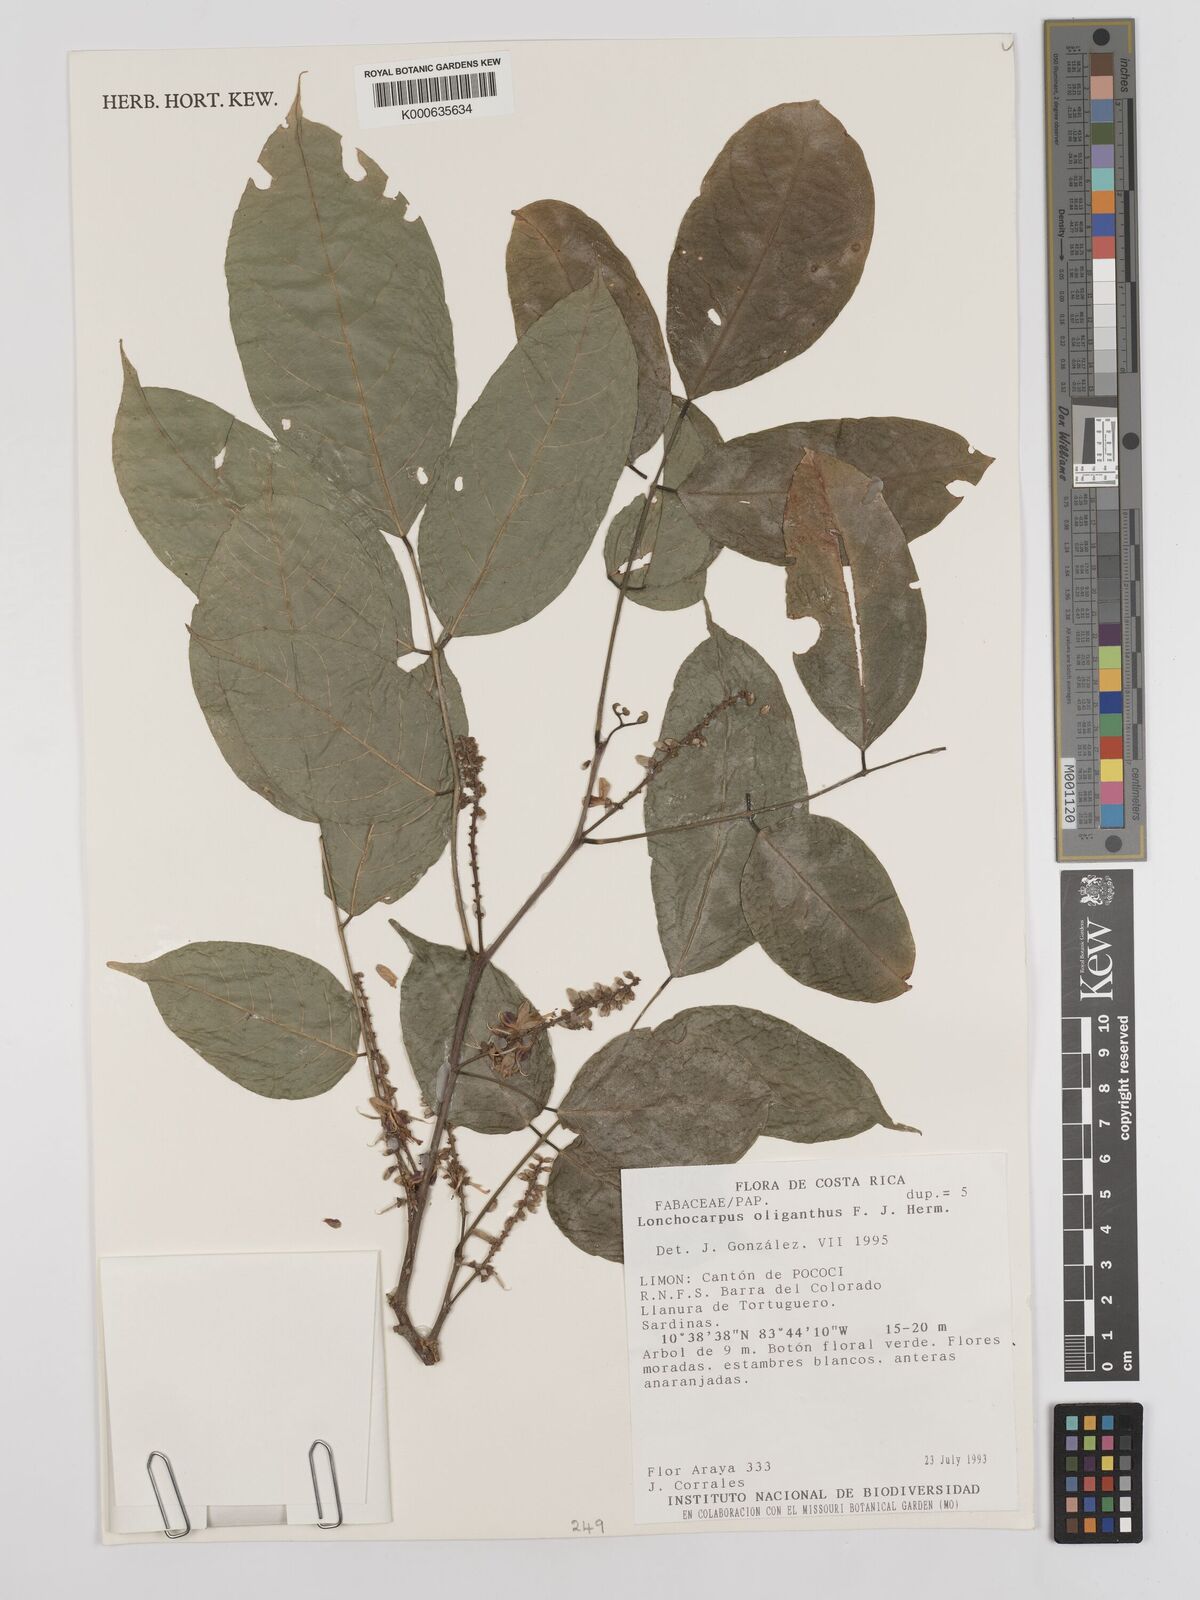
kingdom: Plantae
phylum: Tracheophyta
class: Magnoliopsida
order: Fabales
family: Fabaceae
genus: Lonchocarpus
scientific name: Lonchocarpus oliganthus
